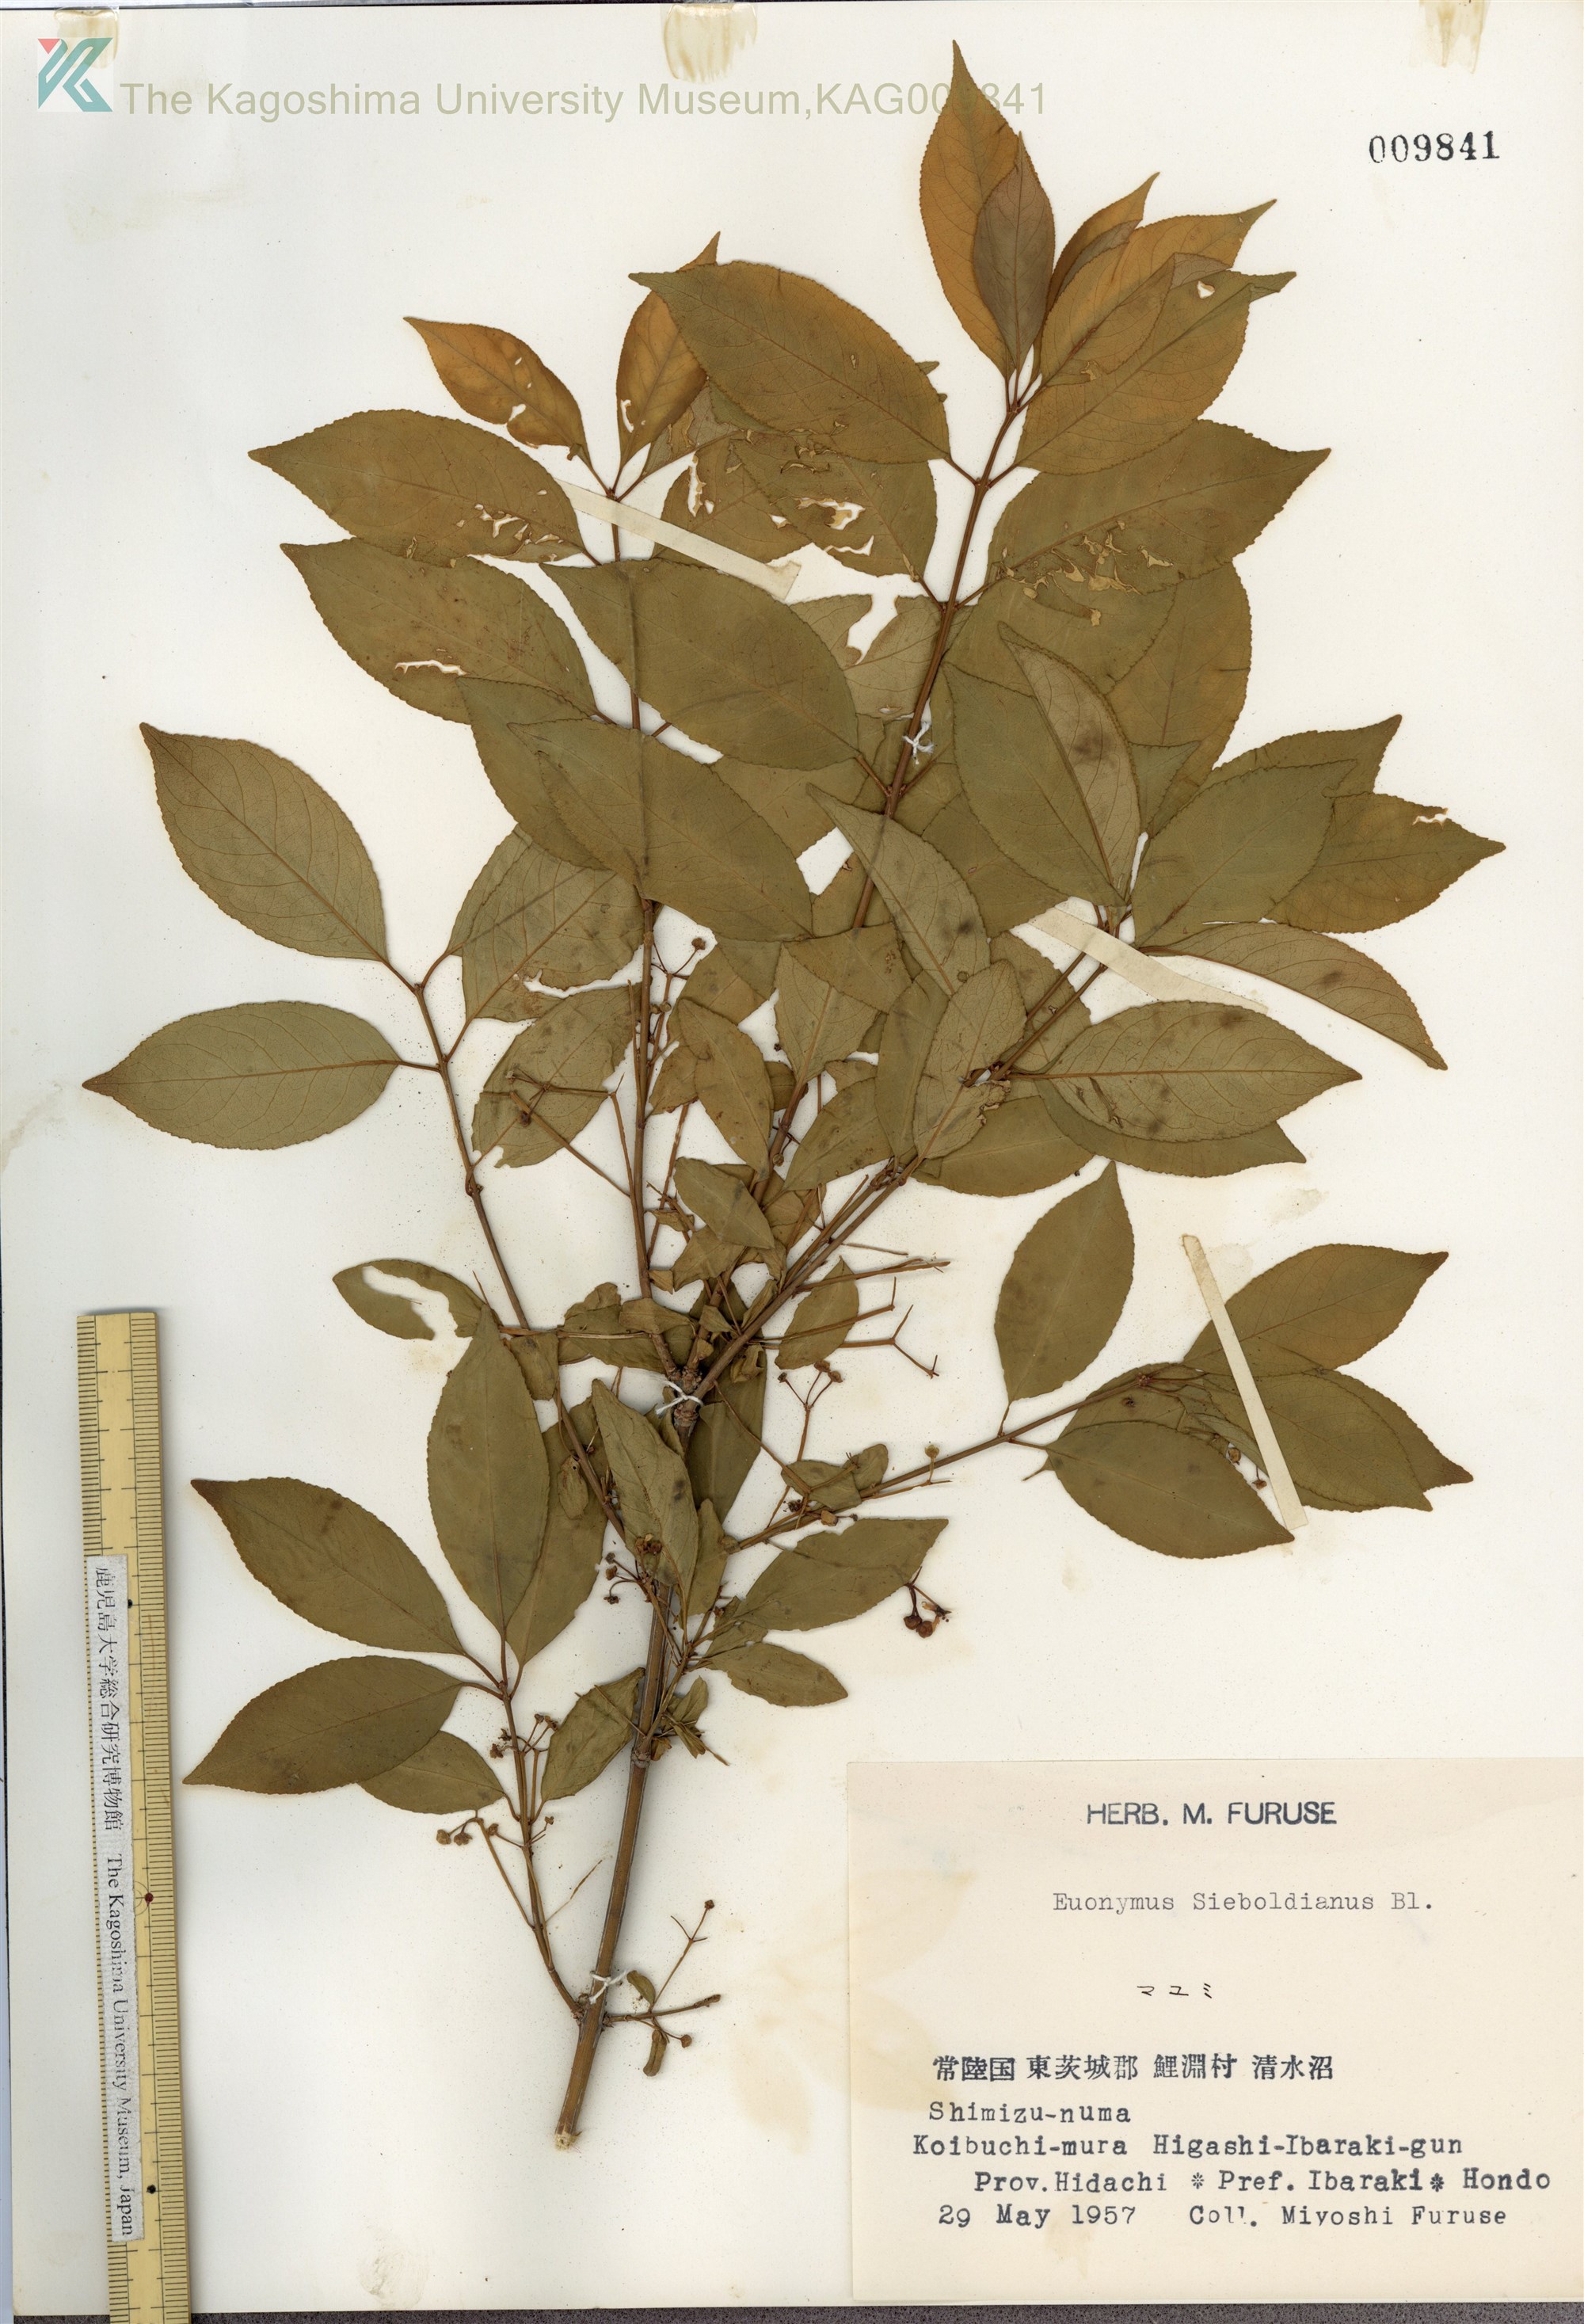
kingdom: Plantae
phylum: Tracheophyta
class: Magnoliopsida
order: Celastrales
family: Celastraceae
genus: Euonymus
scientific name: Euonymus hamiltonianus
